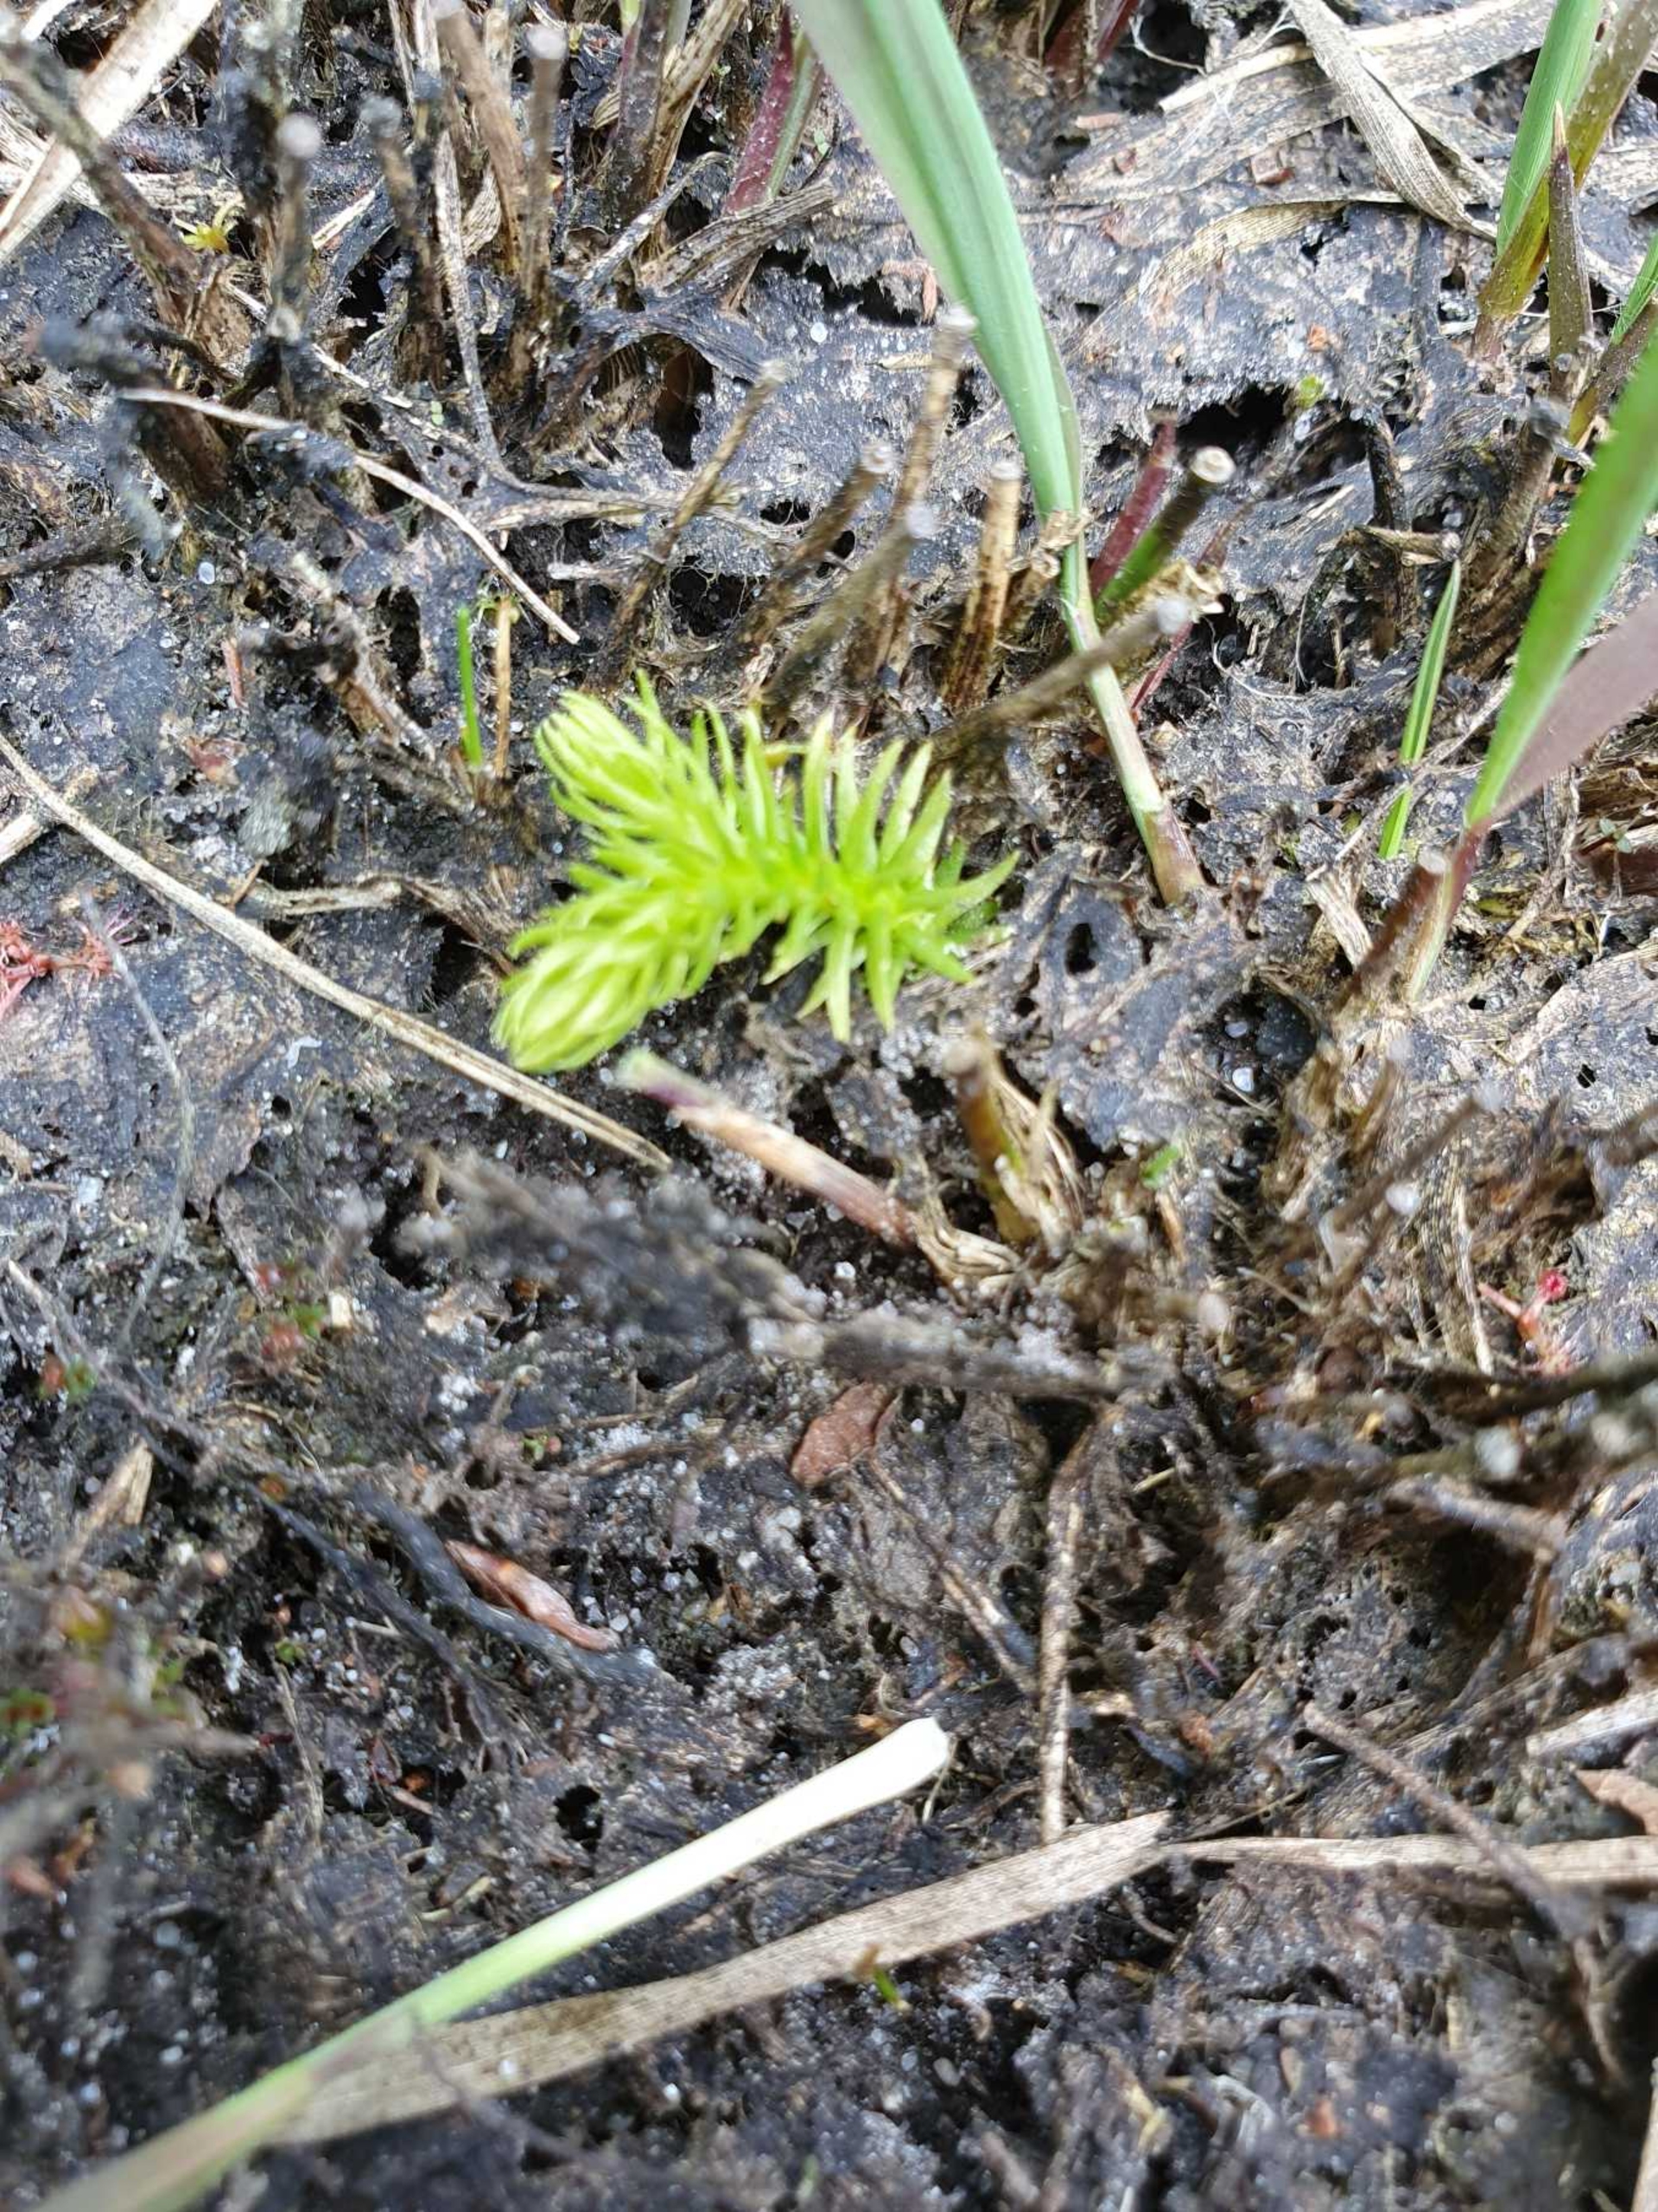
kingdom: Plantae
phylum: Tracheophyta
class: Lycopodiopsida
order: Lycopodiales
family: Lycopodiaceae
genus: Lycopodiella
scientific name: Lycopodiella inundata
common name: Liden ulvefod
